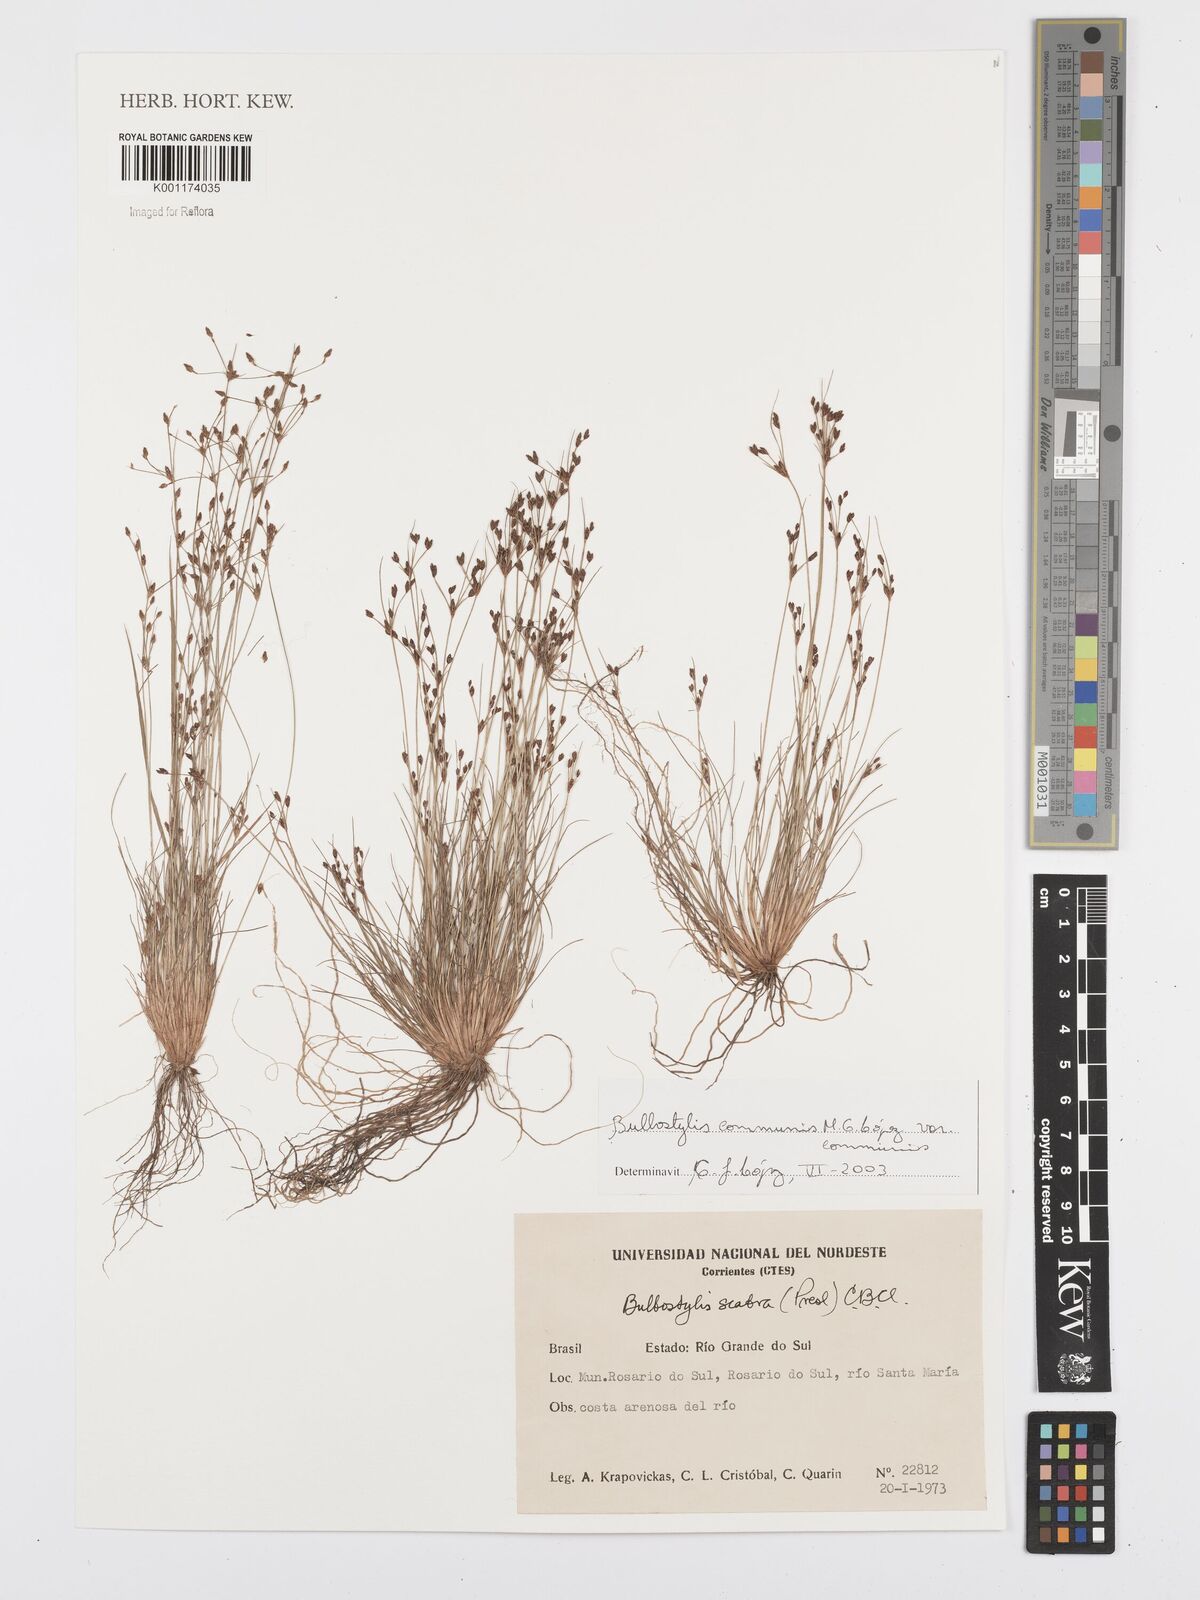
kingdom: Plantae
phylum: Tracheophyta
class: Liliopsida
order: Poales
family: Cyperaceae
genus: Bulbostylis
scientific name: Bulbostylis communis
